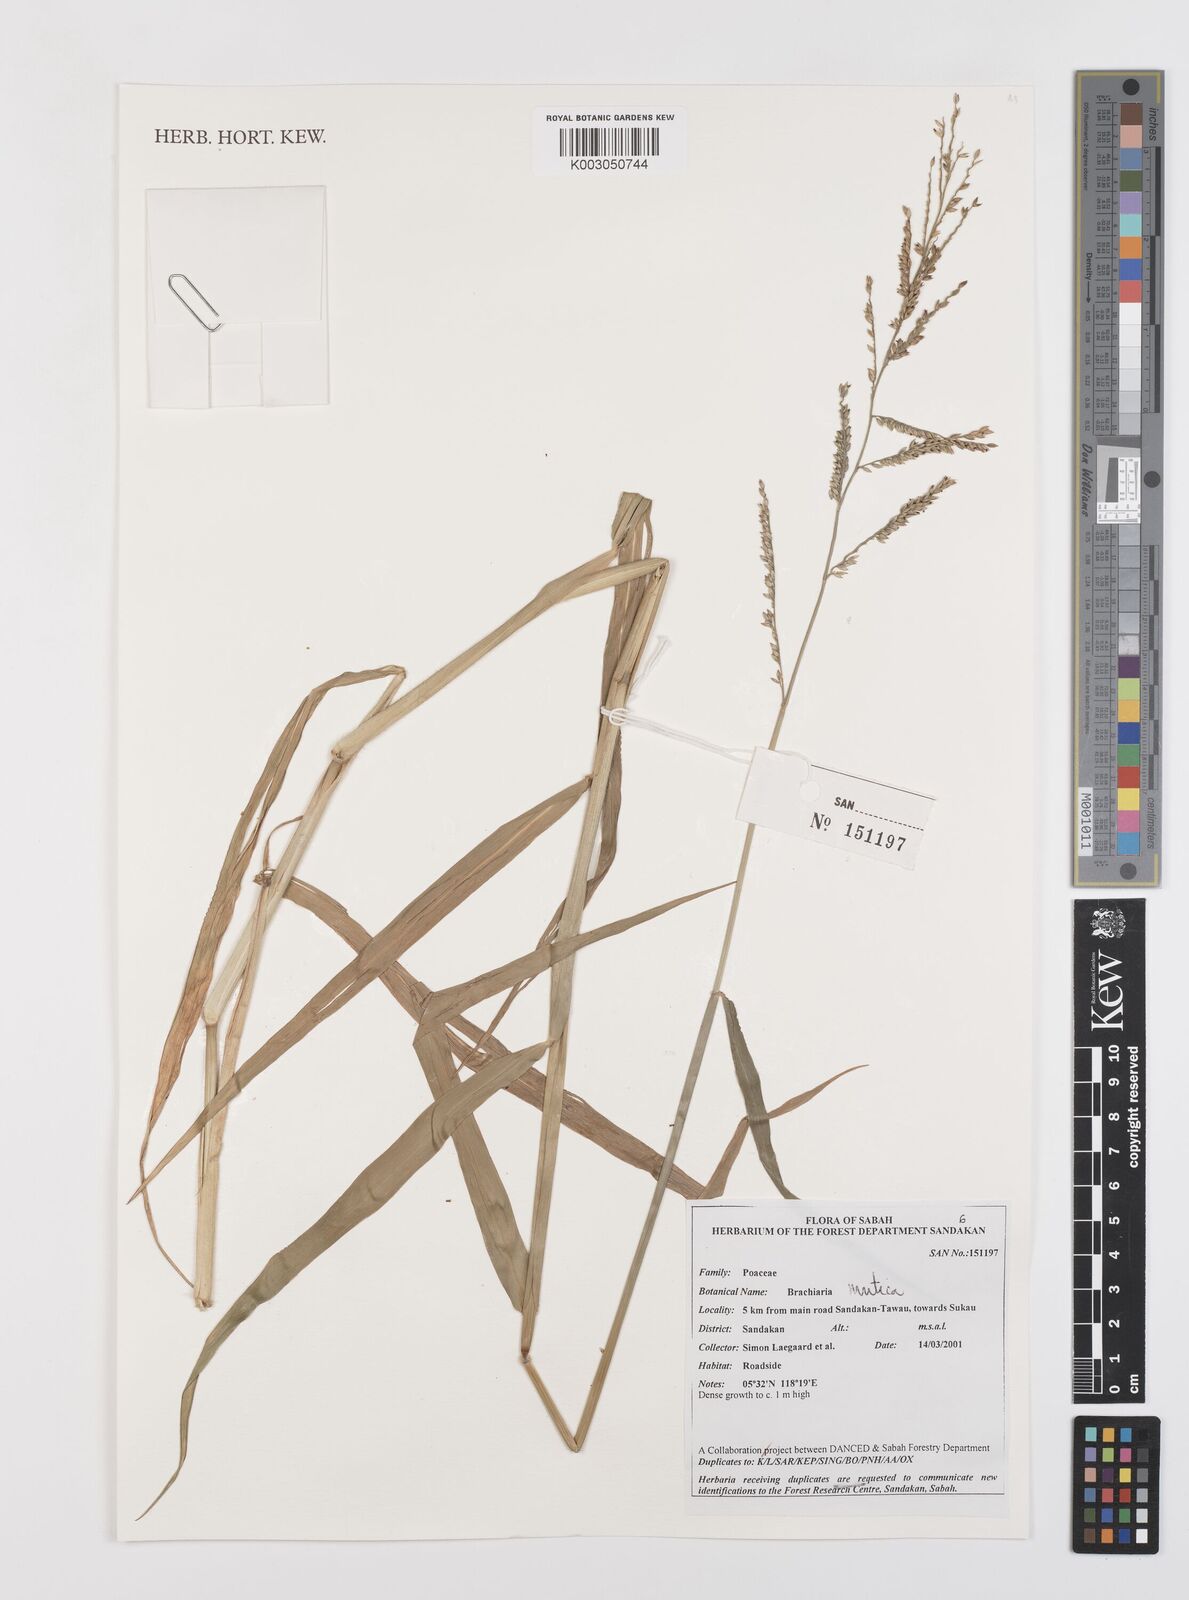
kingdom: Plantae
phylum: Tracheophyta
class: Liliopsida
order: Poales
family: Poaceae
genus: Urochloa
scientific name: Urochloa mutica
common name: Para grass
